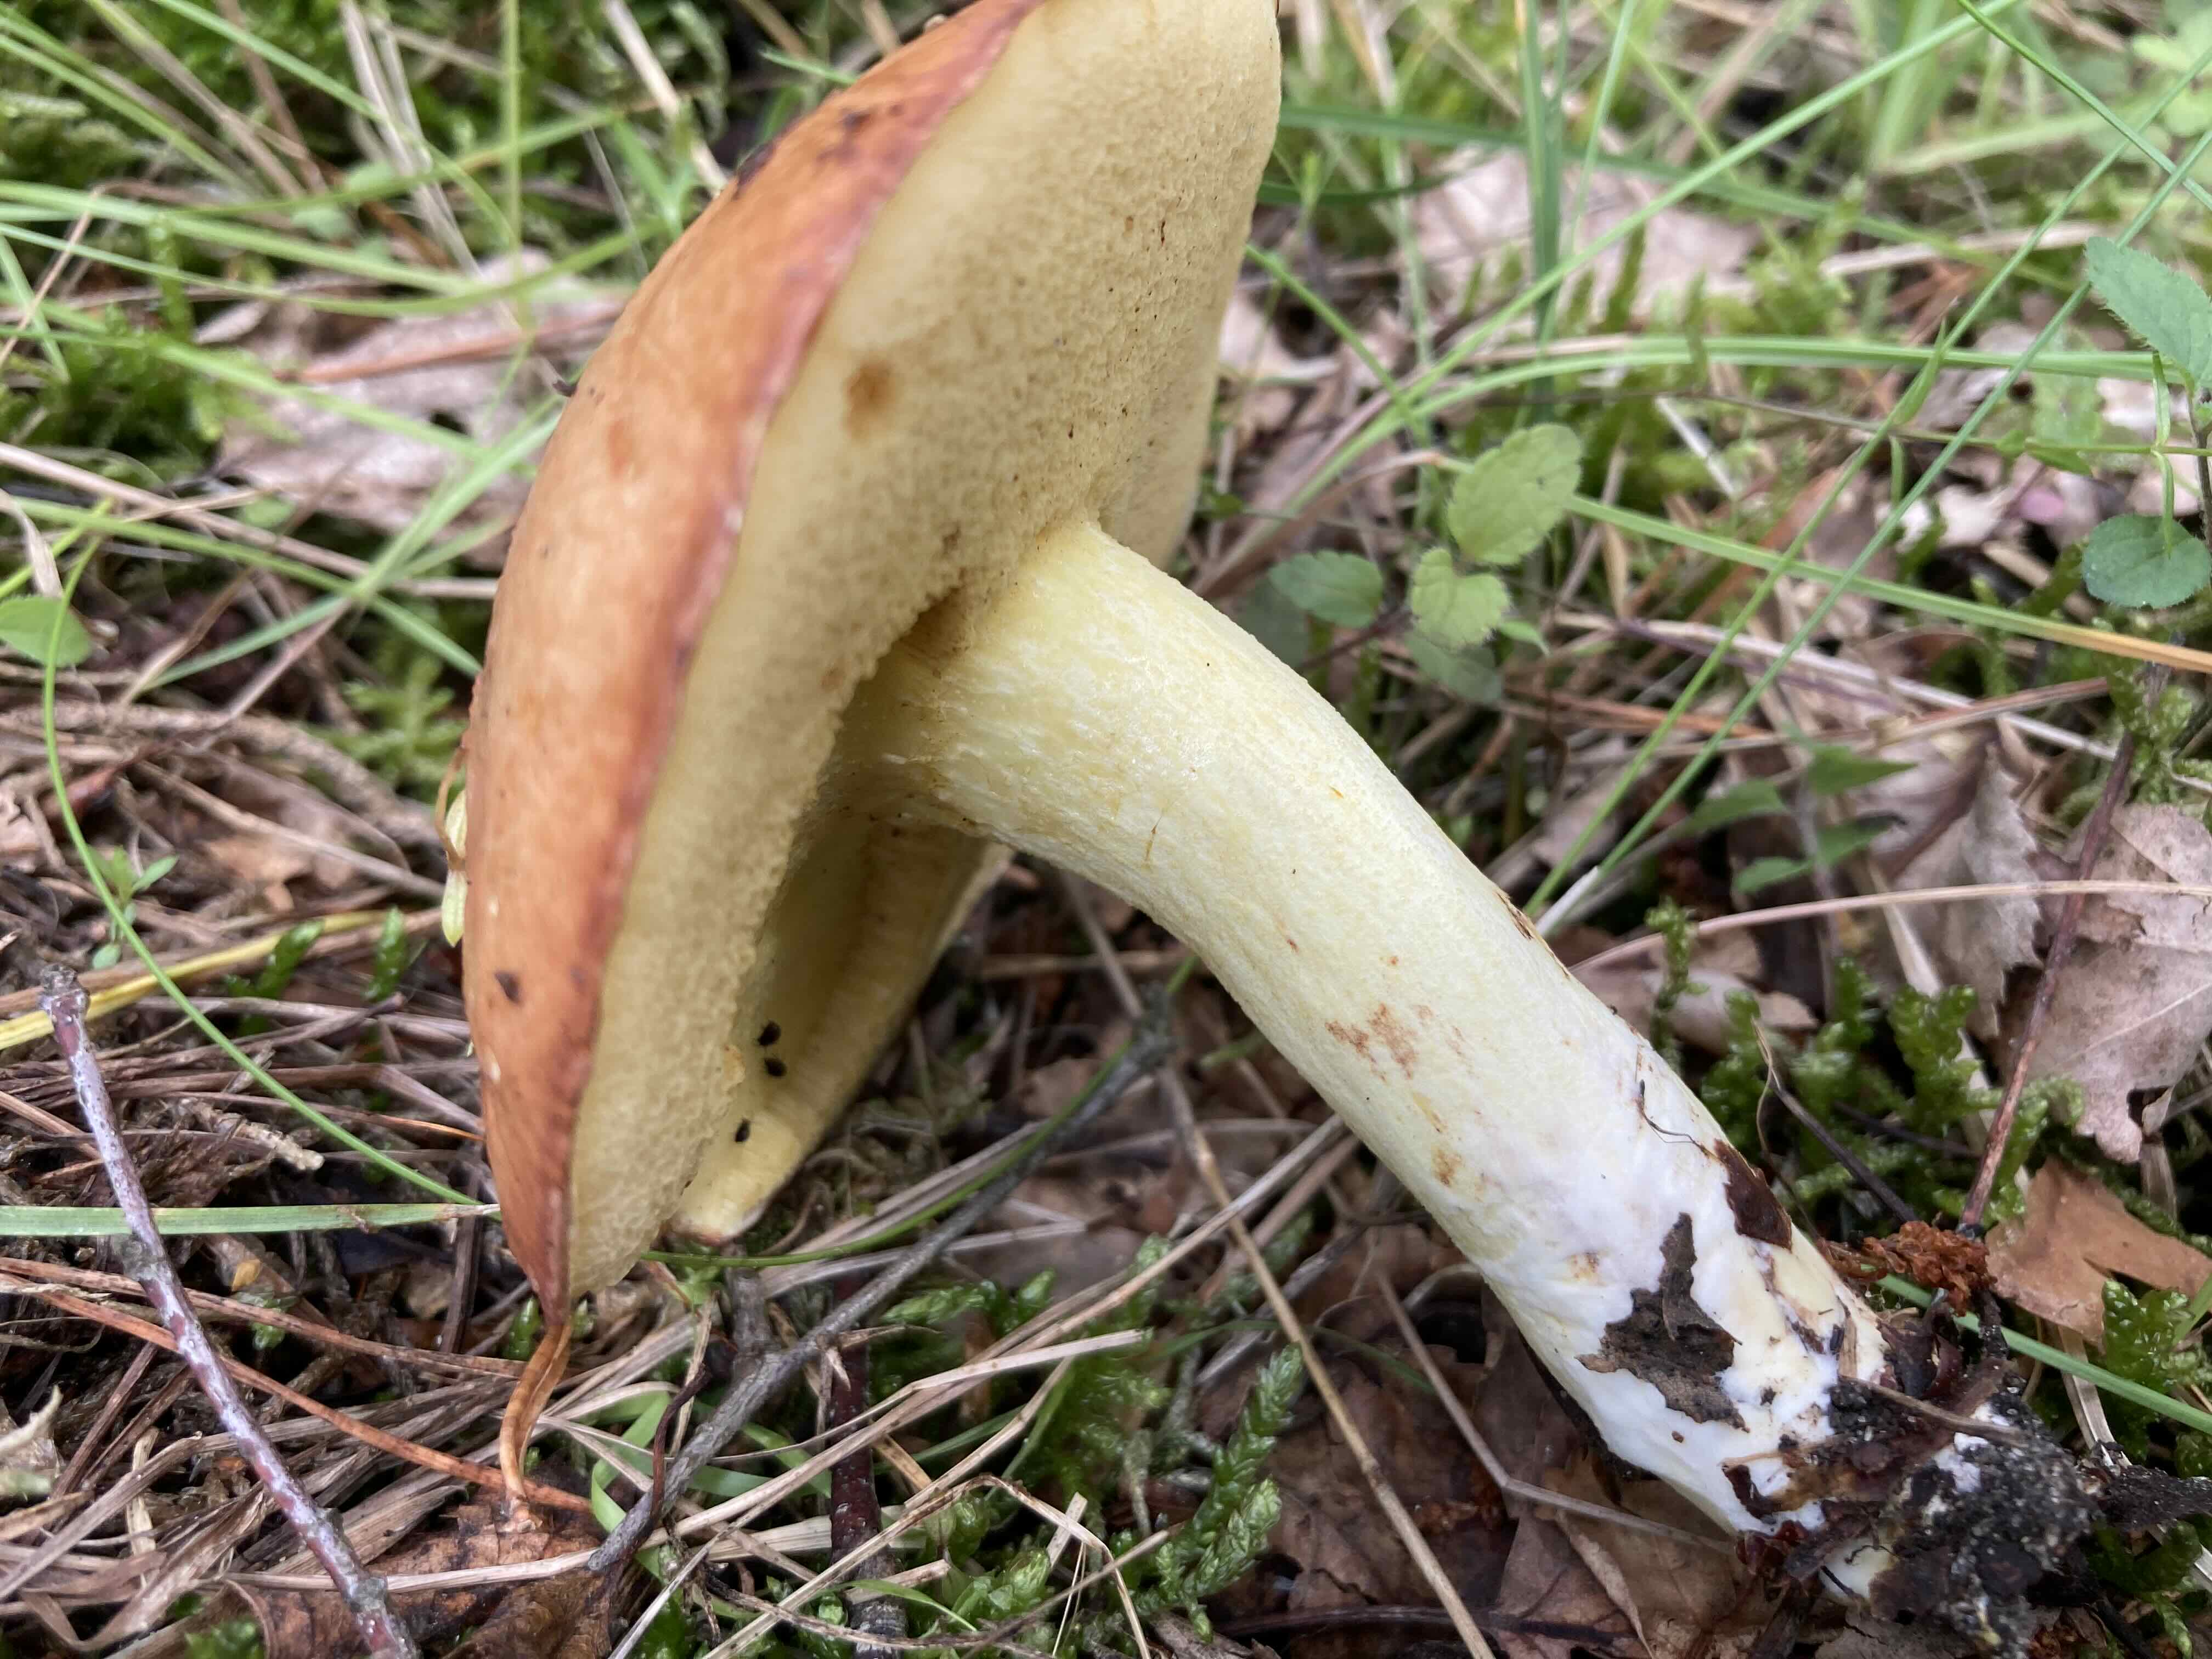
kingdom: Fungi
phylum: Basidiomycota
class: Agaricomycetes
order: Boletales
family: Suillaceae
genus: Suillus
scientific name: Suillus granulatus
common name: kornet slimrørhat
